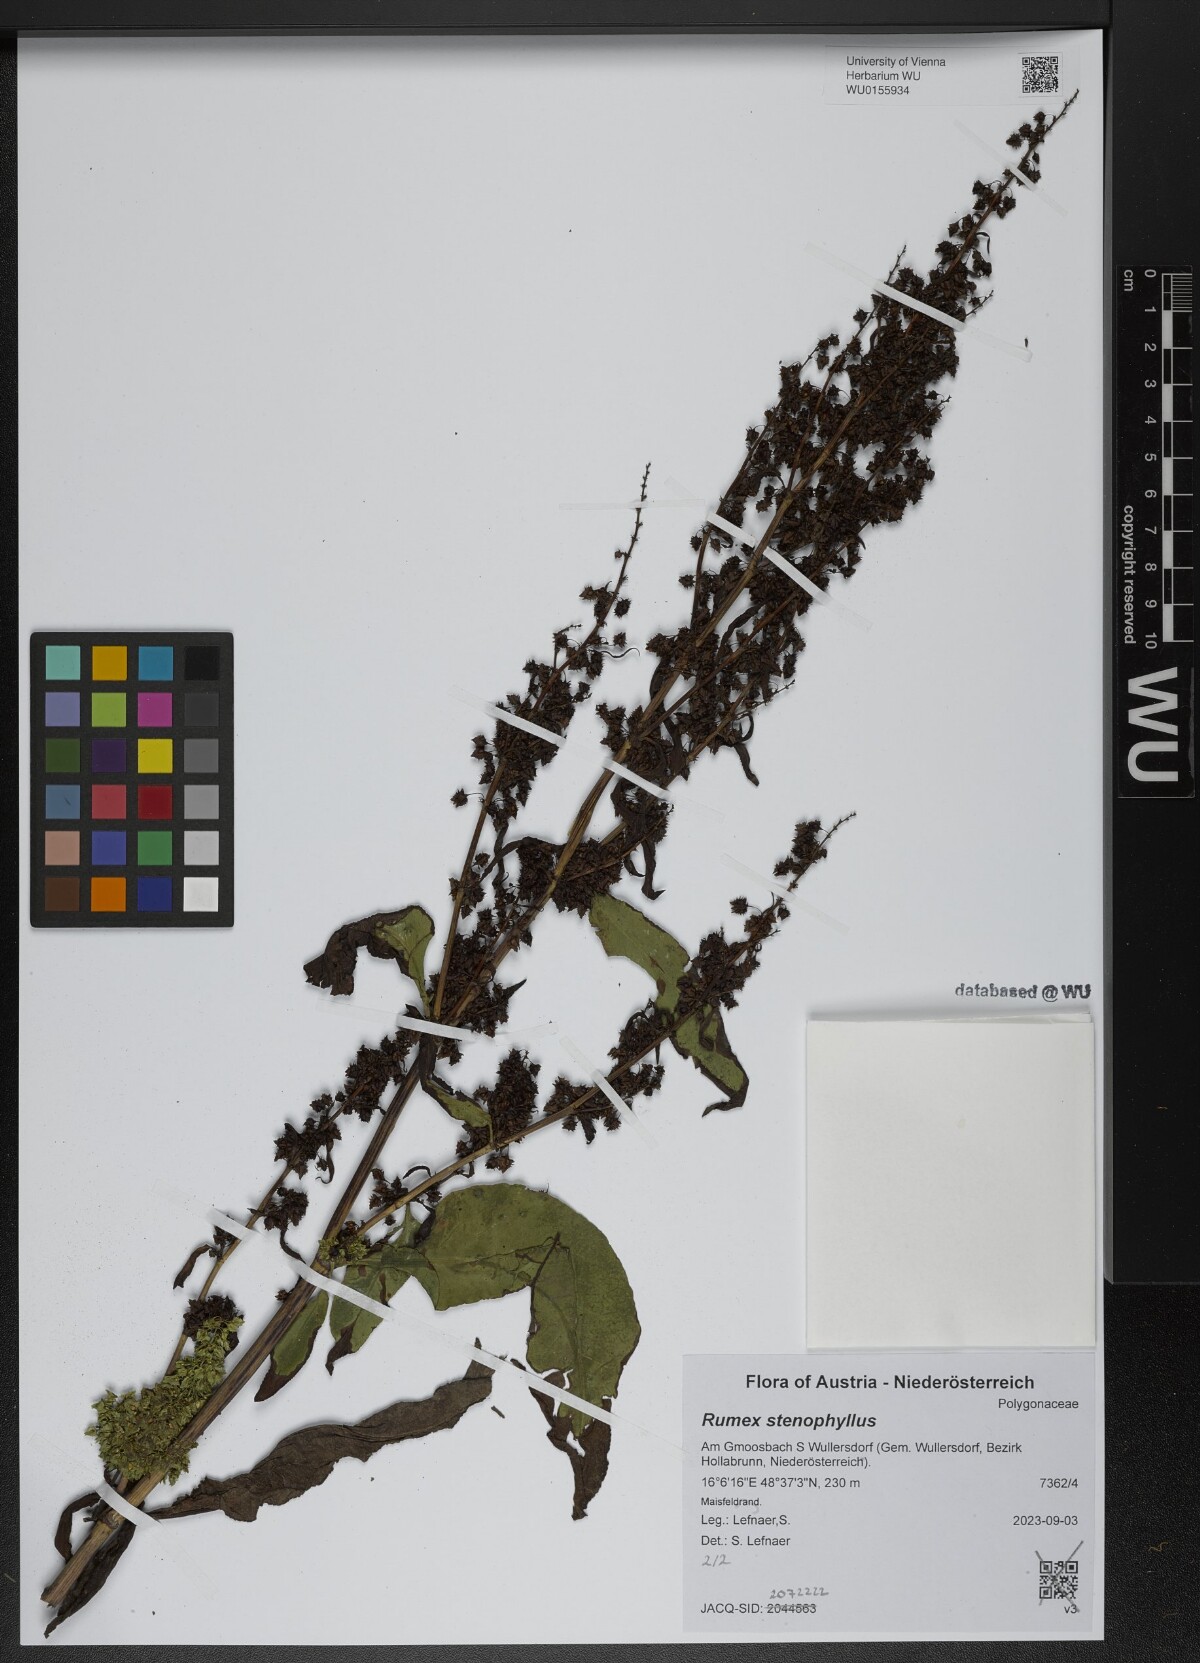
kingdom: Plantae
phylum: Tracheophyta
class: Magnoliopsida
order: Caryophyllales
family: Polygonaceae
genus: Rumex
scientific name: Rumex stenophyllus
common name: Narrowleaf dock
